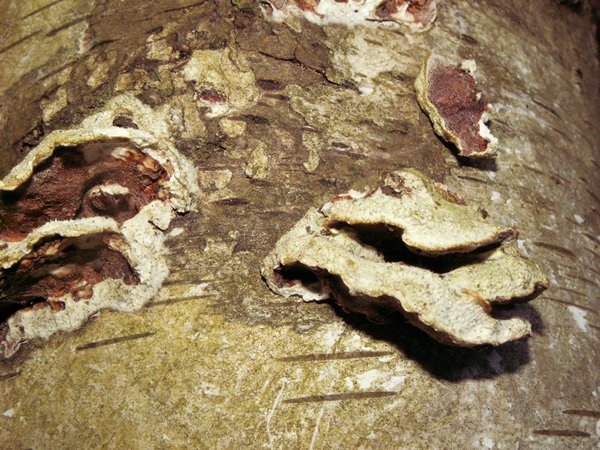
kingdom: Fungi
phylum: Basidiomycota
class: Agaricomycetes
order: Polyporales
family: Irpicaceae
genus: Vitreoporus
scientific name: Vitreoporus dichrous
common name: tofarvet foldporesvamp
